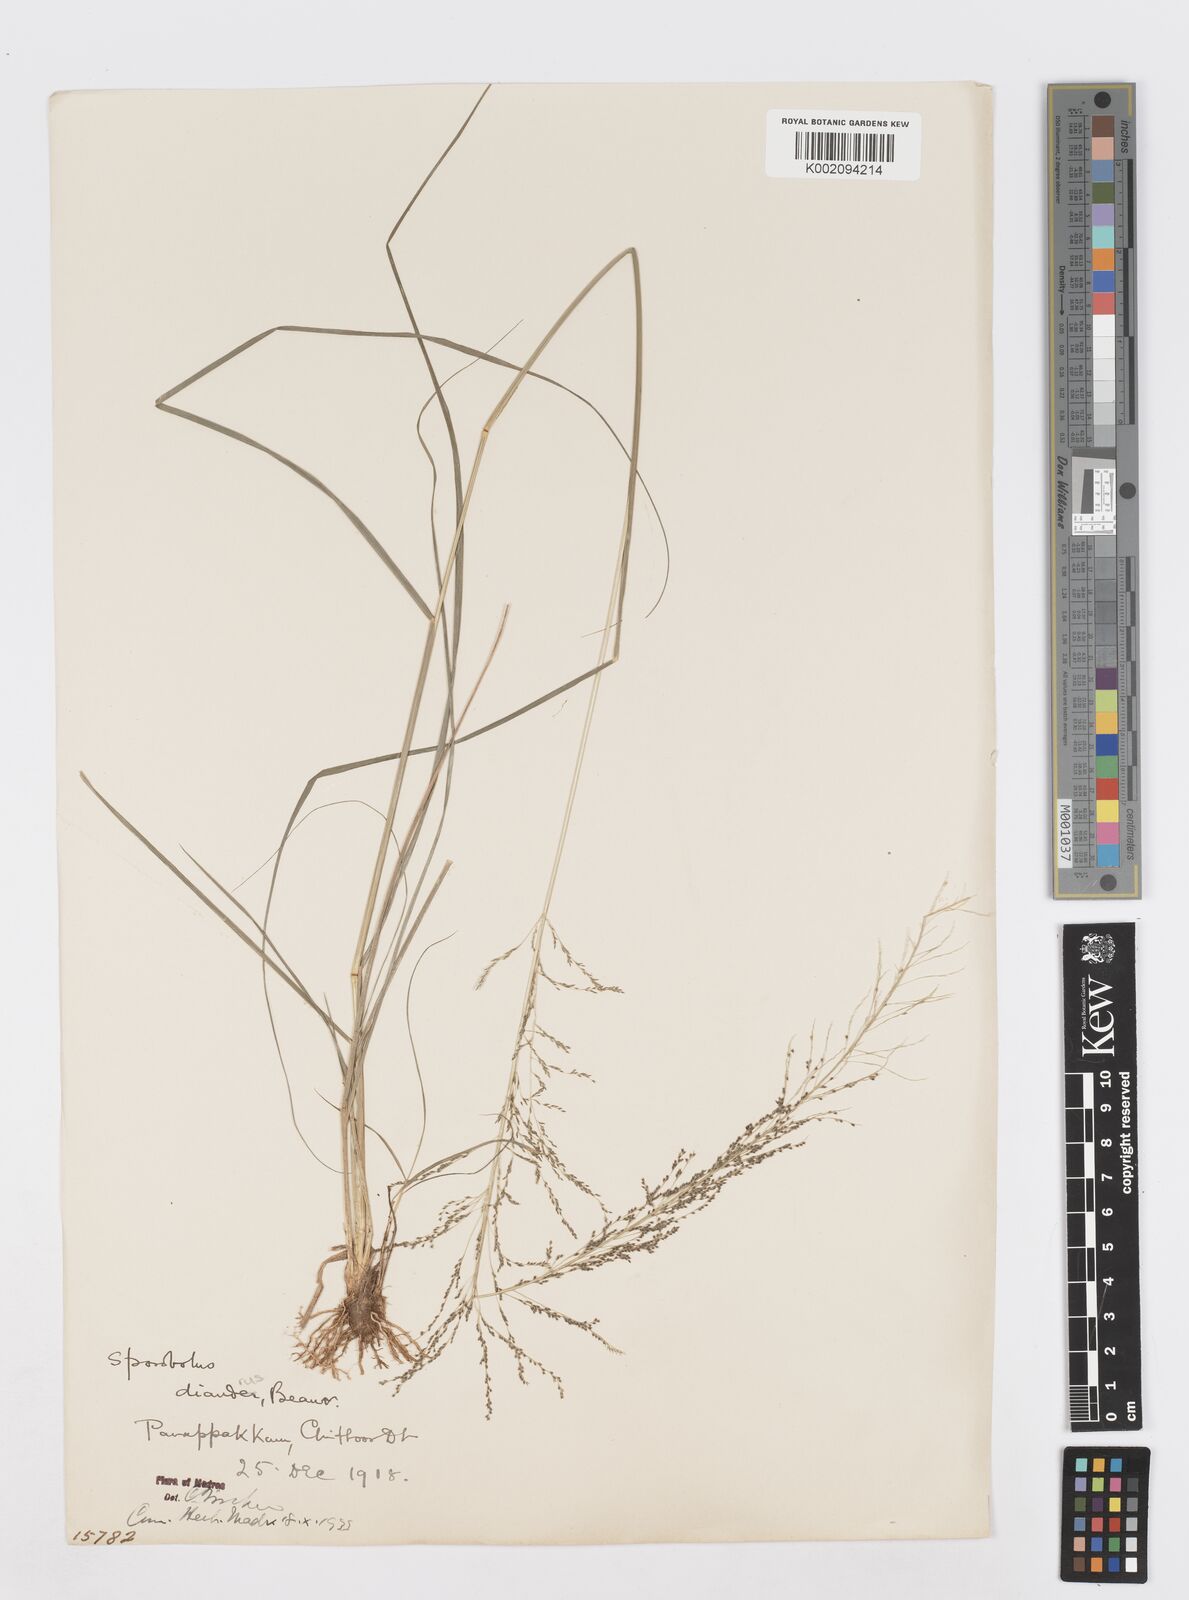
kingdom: Plantae
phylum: Tracheophyta
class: Liliopsida
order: Poales
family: Poaceae
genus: Sporobolus
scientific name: Sporobolus diandrus
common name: Tussock dropseed
